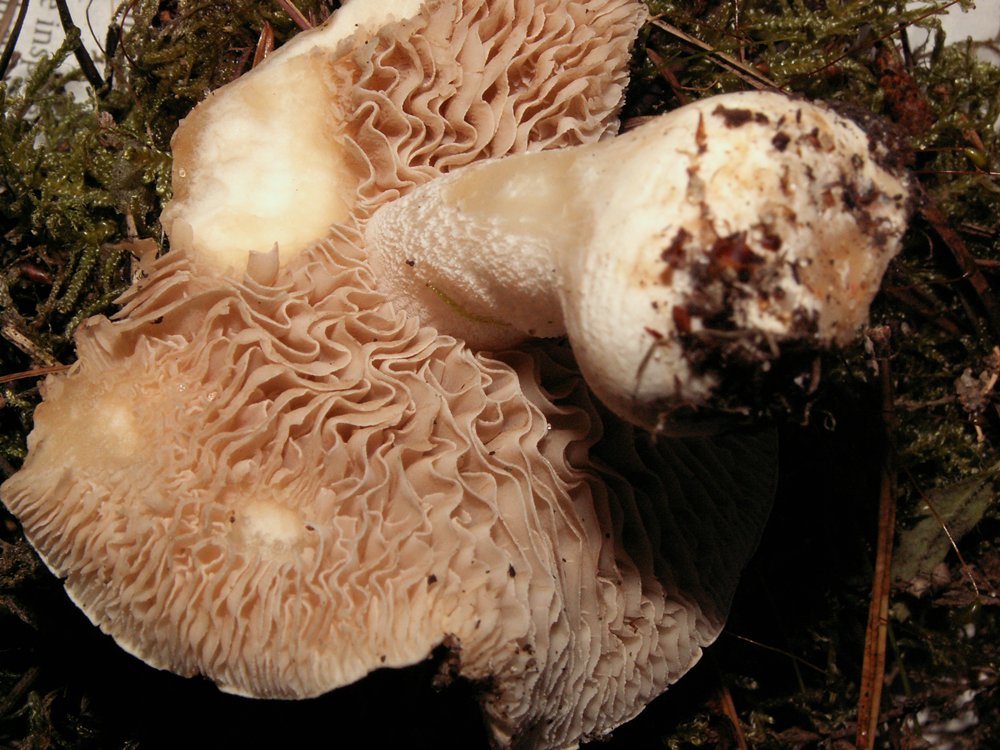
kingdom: Fungi
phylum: Basidiomycota
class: Agaricomycetes
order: Agaricales
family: Hymenogastraceae
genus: Hebeloma
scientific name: Hebeloma leucosarx
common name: højstokket tåreblad
